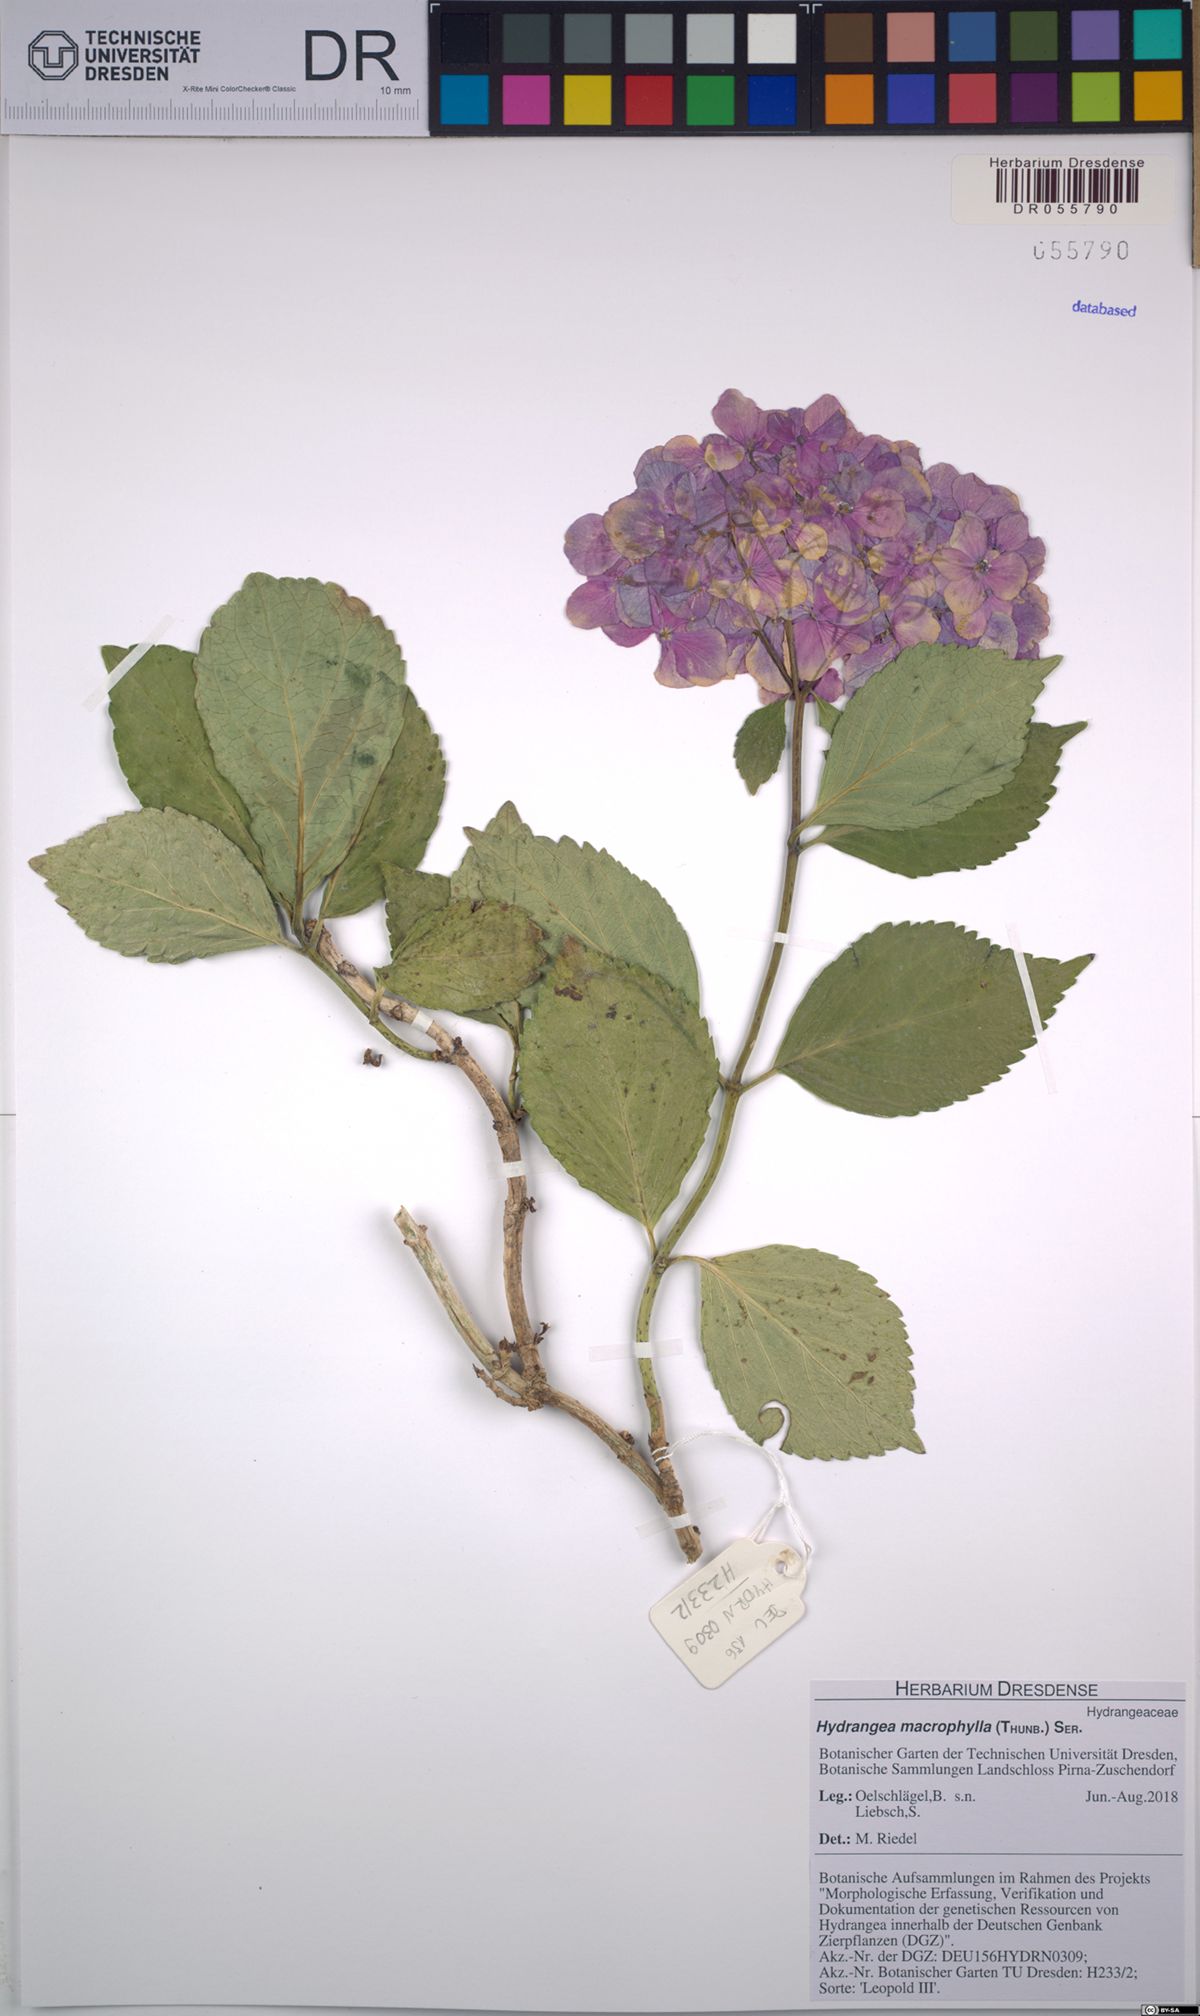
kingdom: Plantae
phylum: Tracheophyta
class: Magnoliopsida
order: Cornales
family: Hydrangeaceae
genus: Hydrangea
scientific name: Hydrangea macrophylla
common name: Hydrangea
